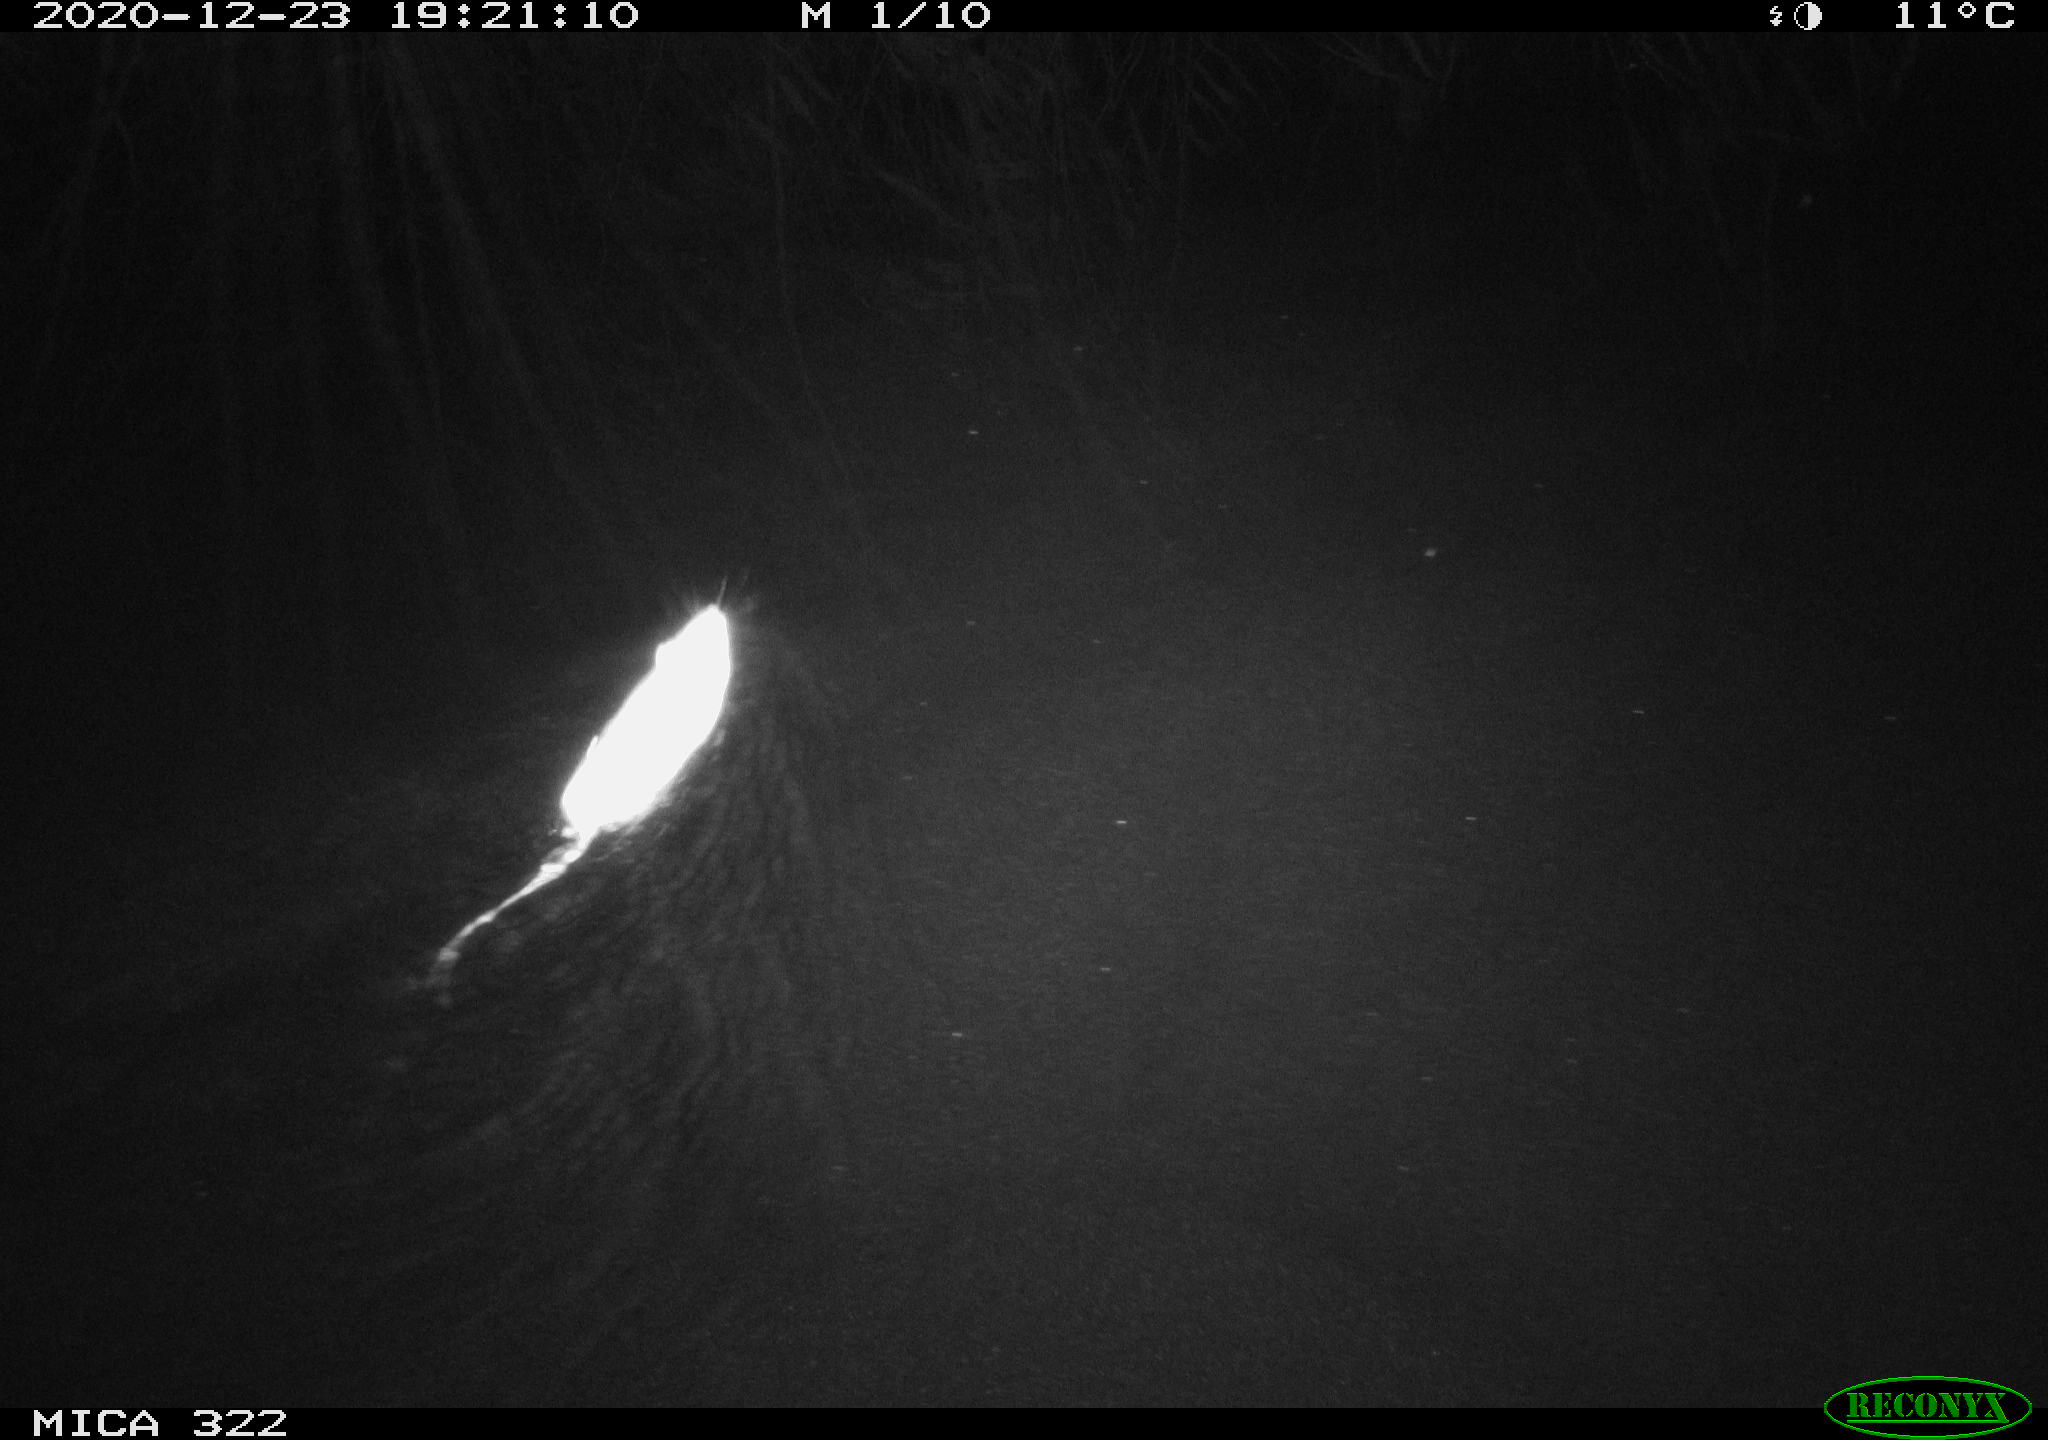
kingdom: Animalia
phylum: Chordata
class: Mammalia
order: Rodentia
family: Muridae
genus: Rattus
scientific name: Rattus norvegicus
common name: Brown rat
